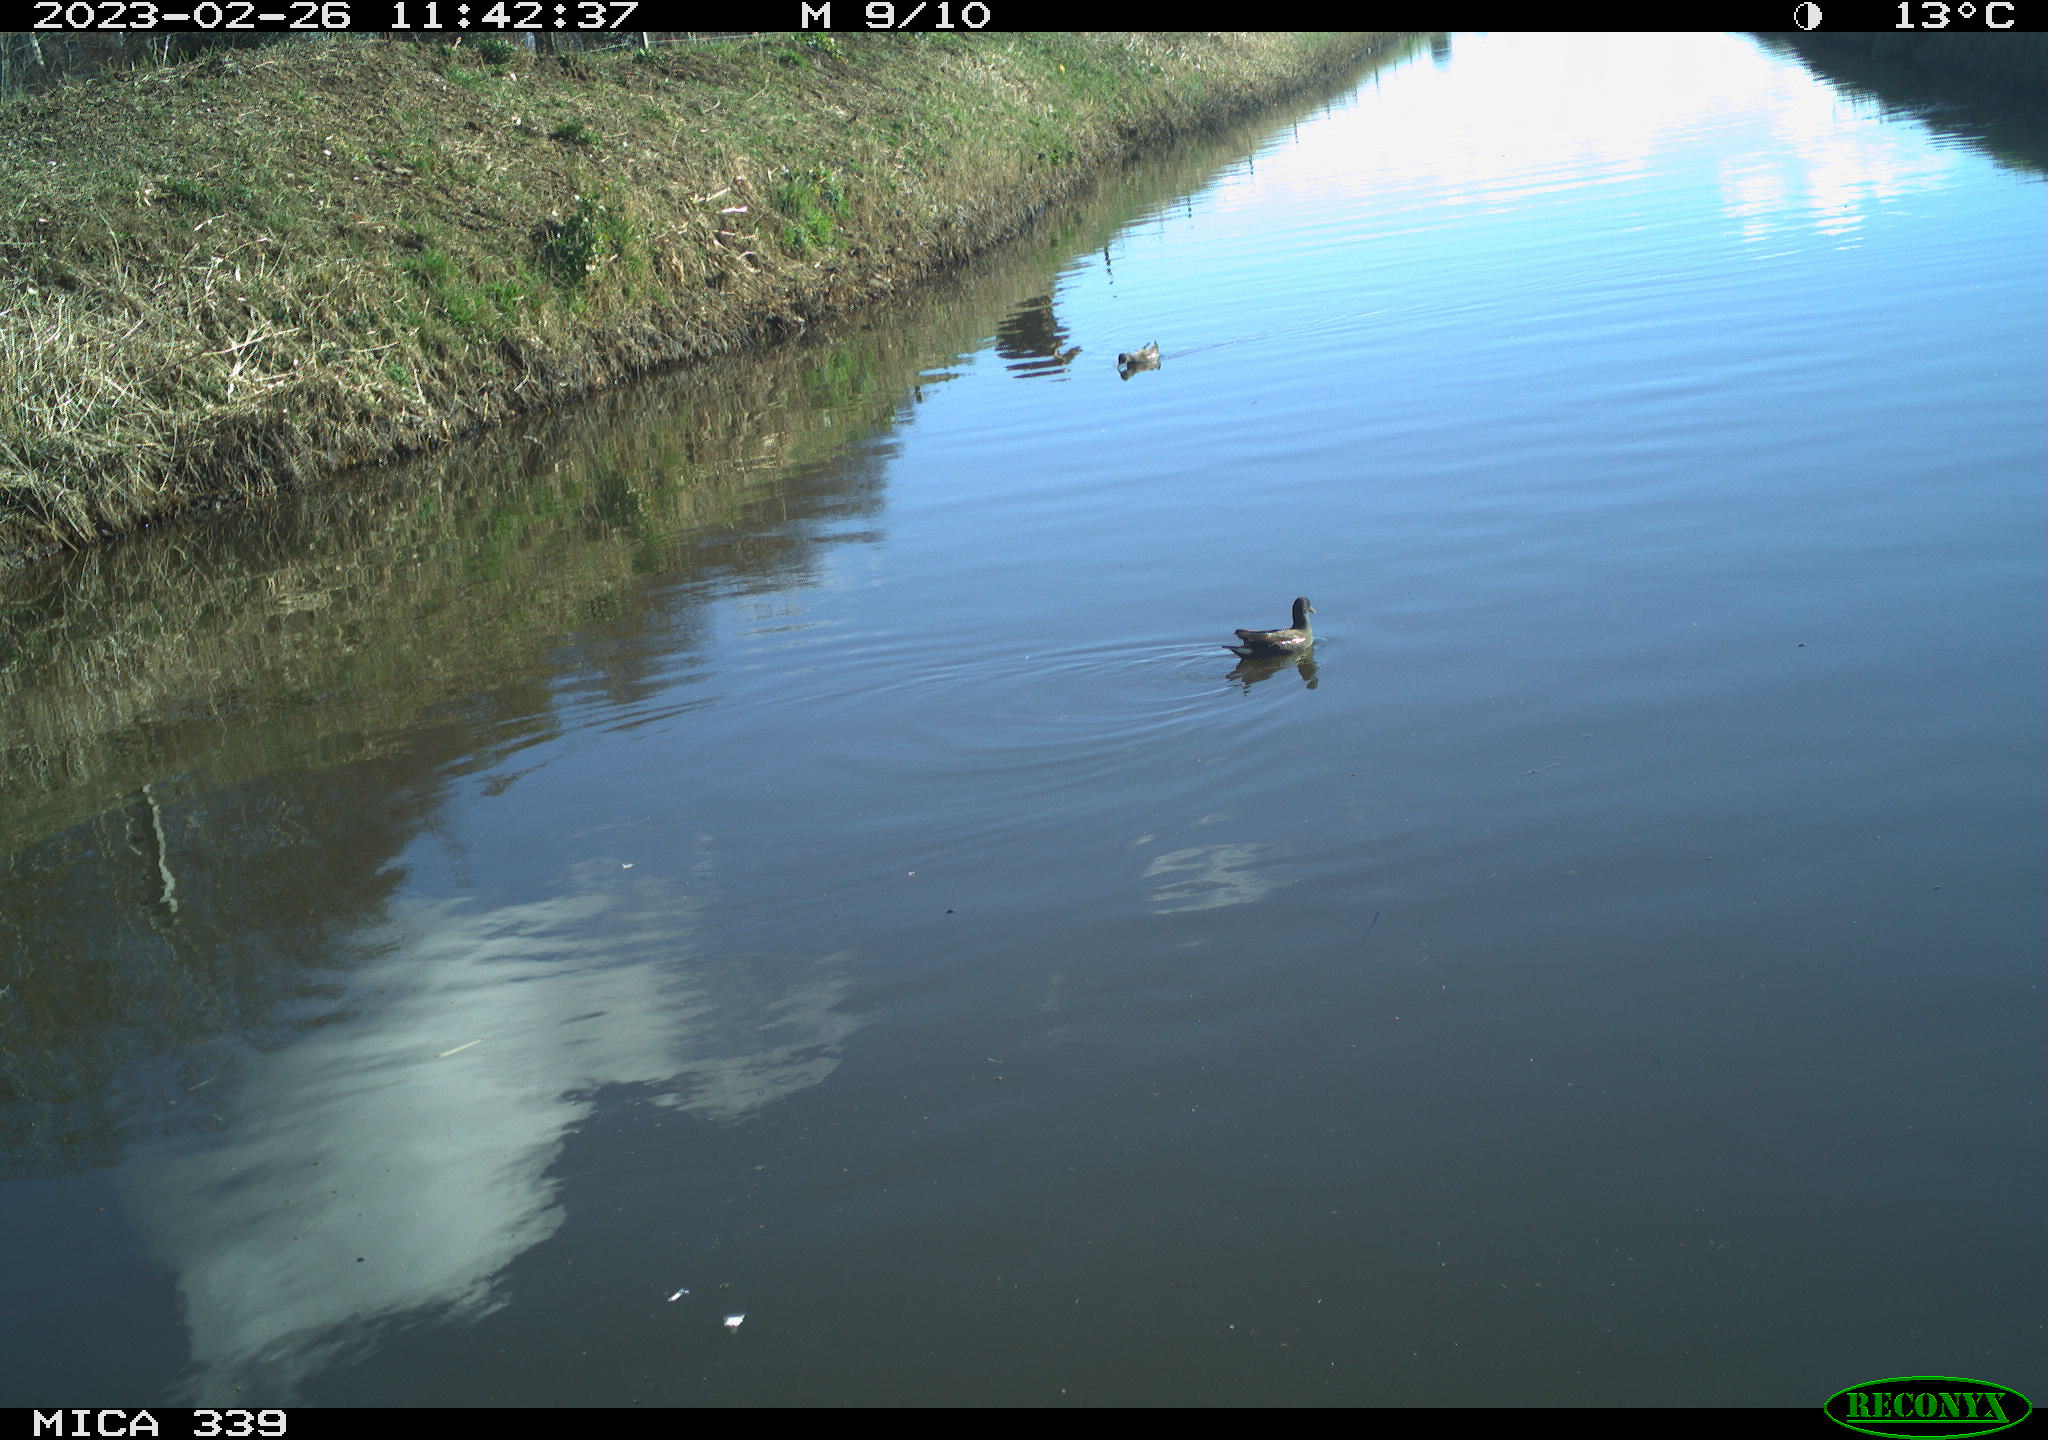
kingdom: Animalia
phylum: Chordata
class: Aves
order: Gruiformes
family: Rallidae
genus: Gallinula
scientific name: Gallinula chloropus
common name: Common moorhen
